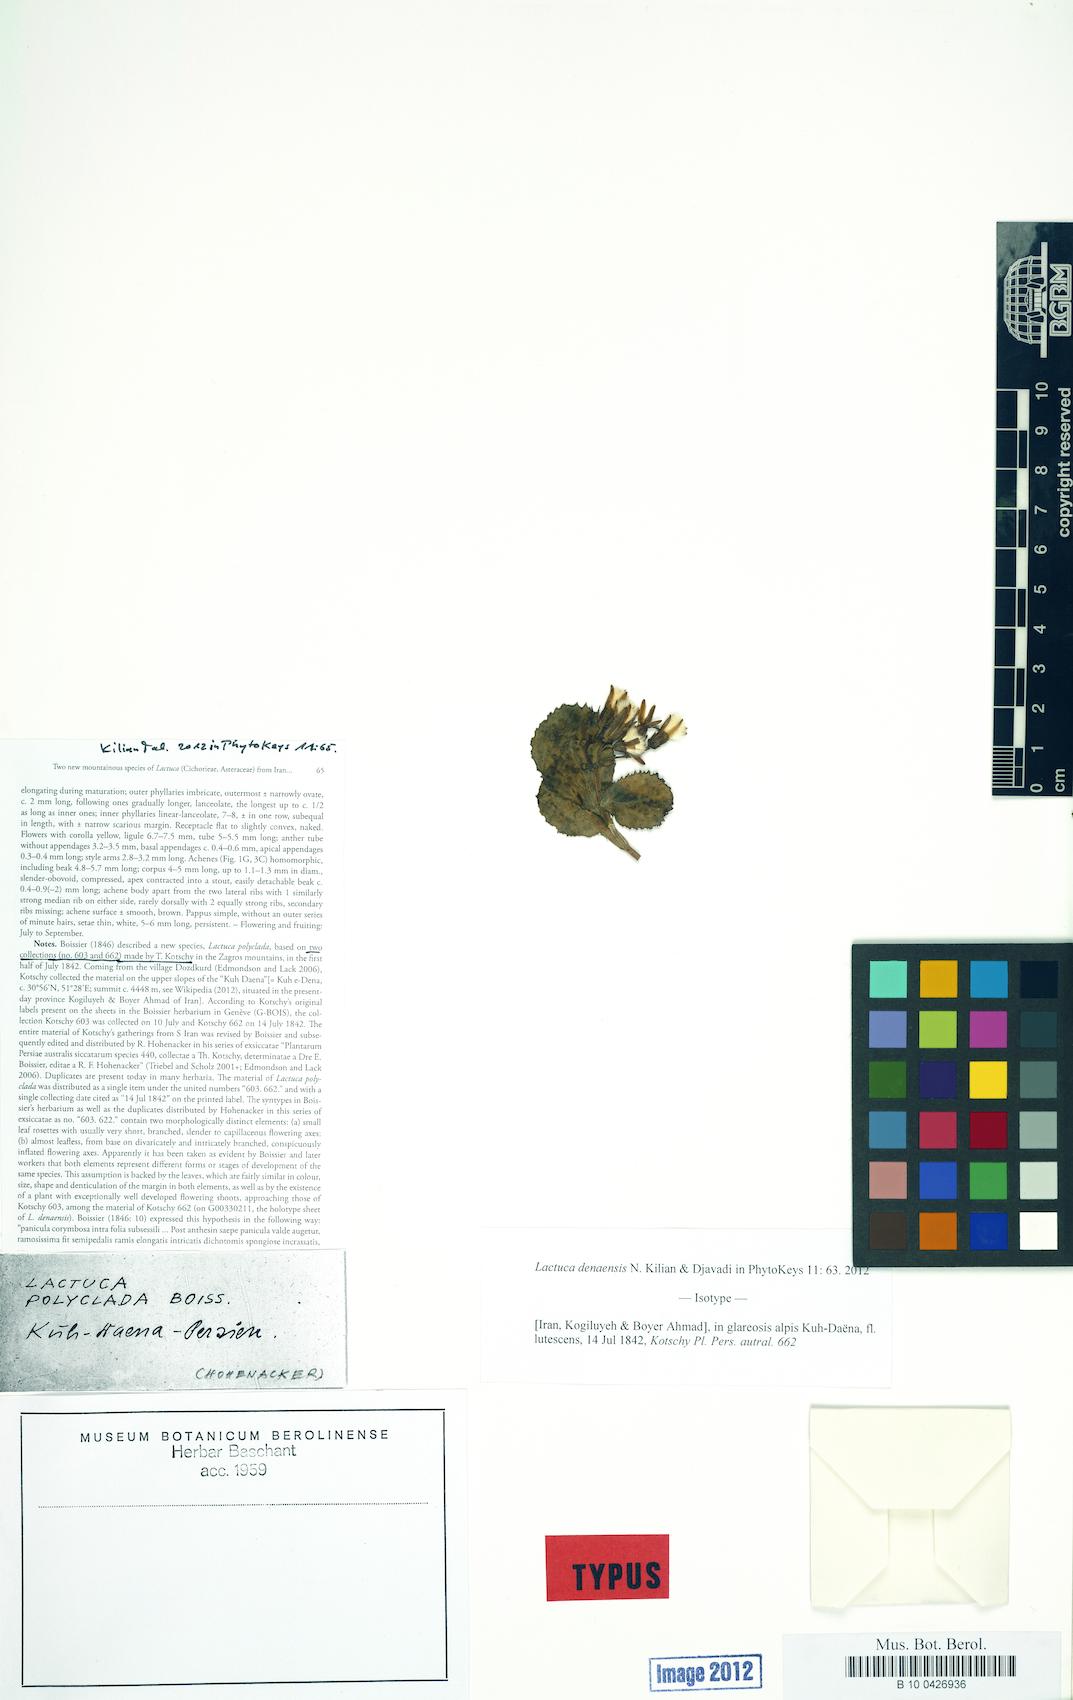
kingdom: Plantae
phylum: Tracheophyta
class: Magnoliopsida
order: Asterales
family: Asteraceae
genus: Lactuca
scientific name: Lactuca denaensis
